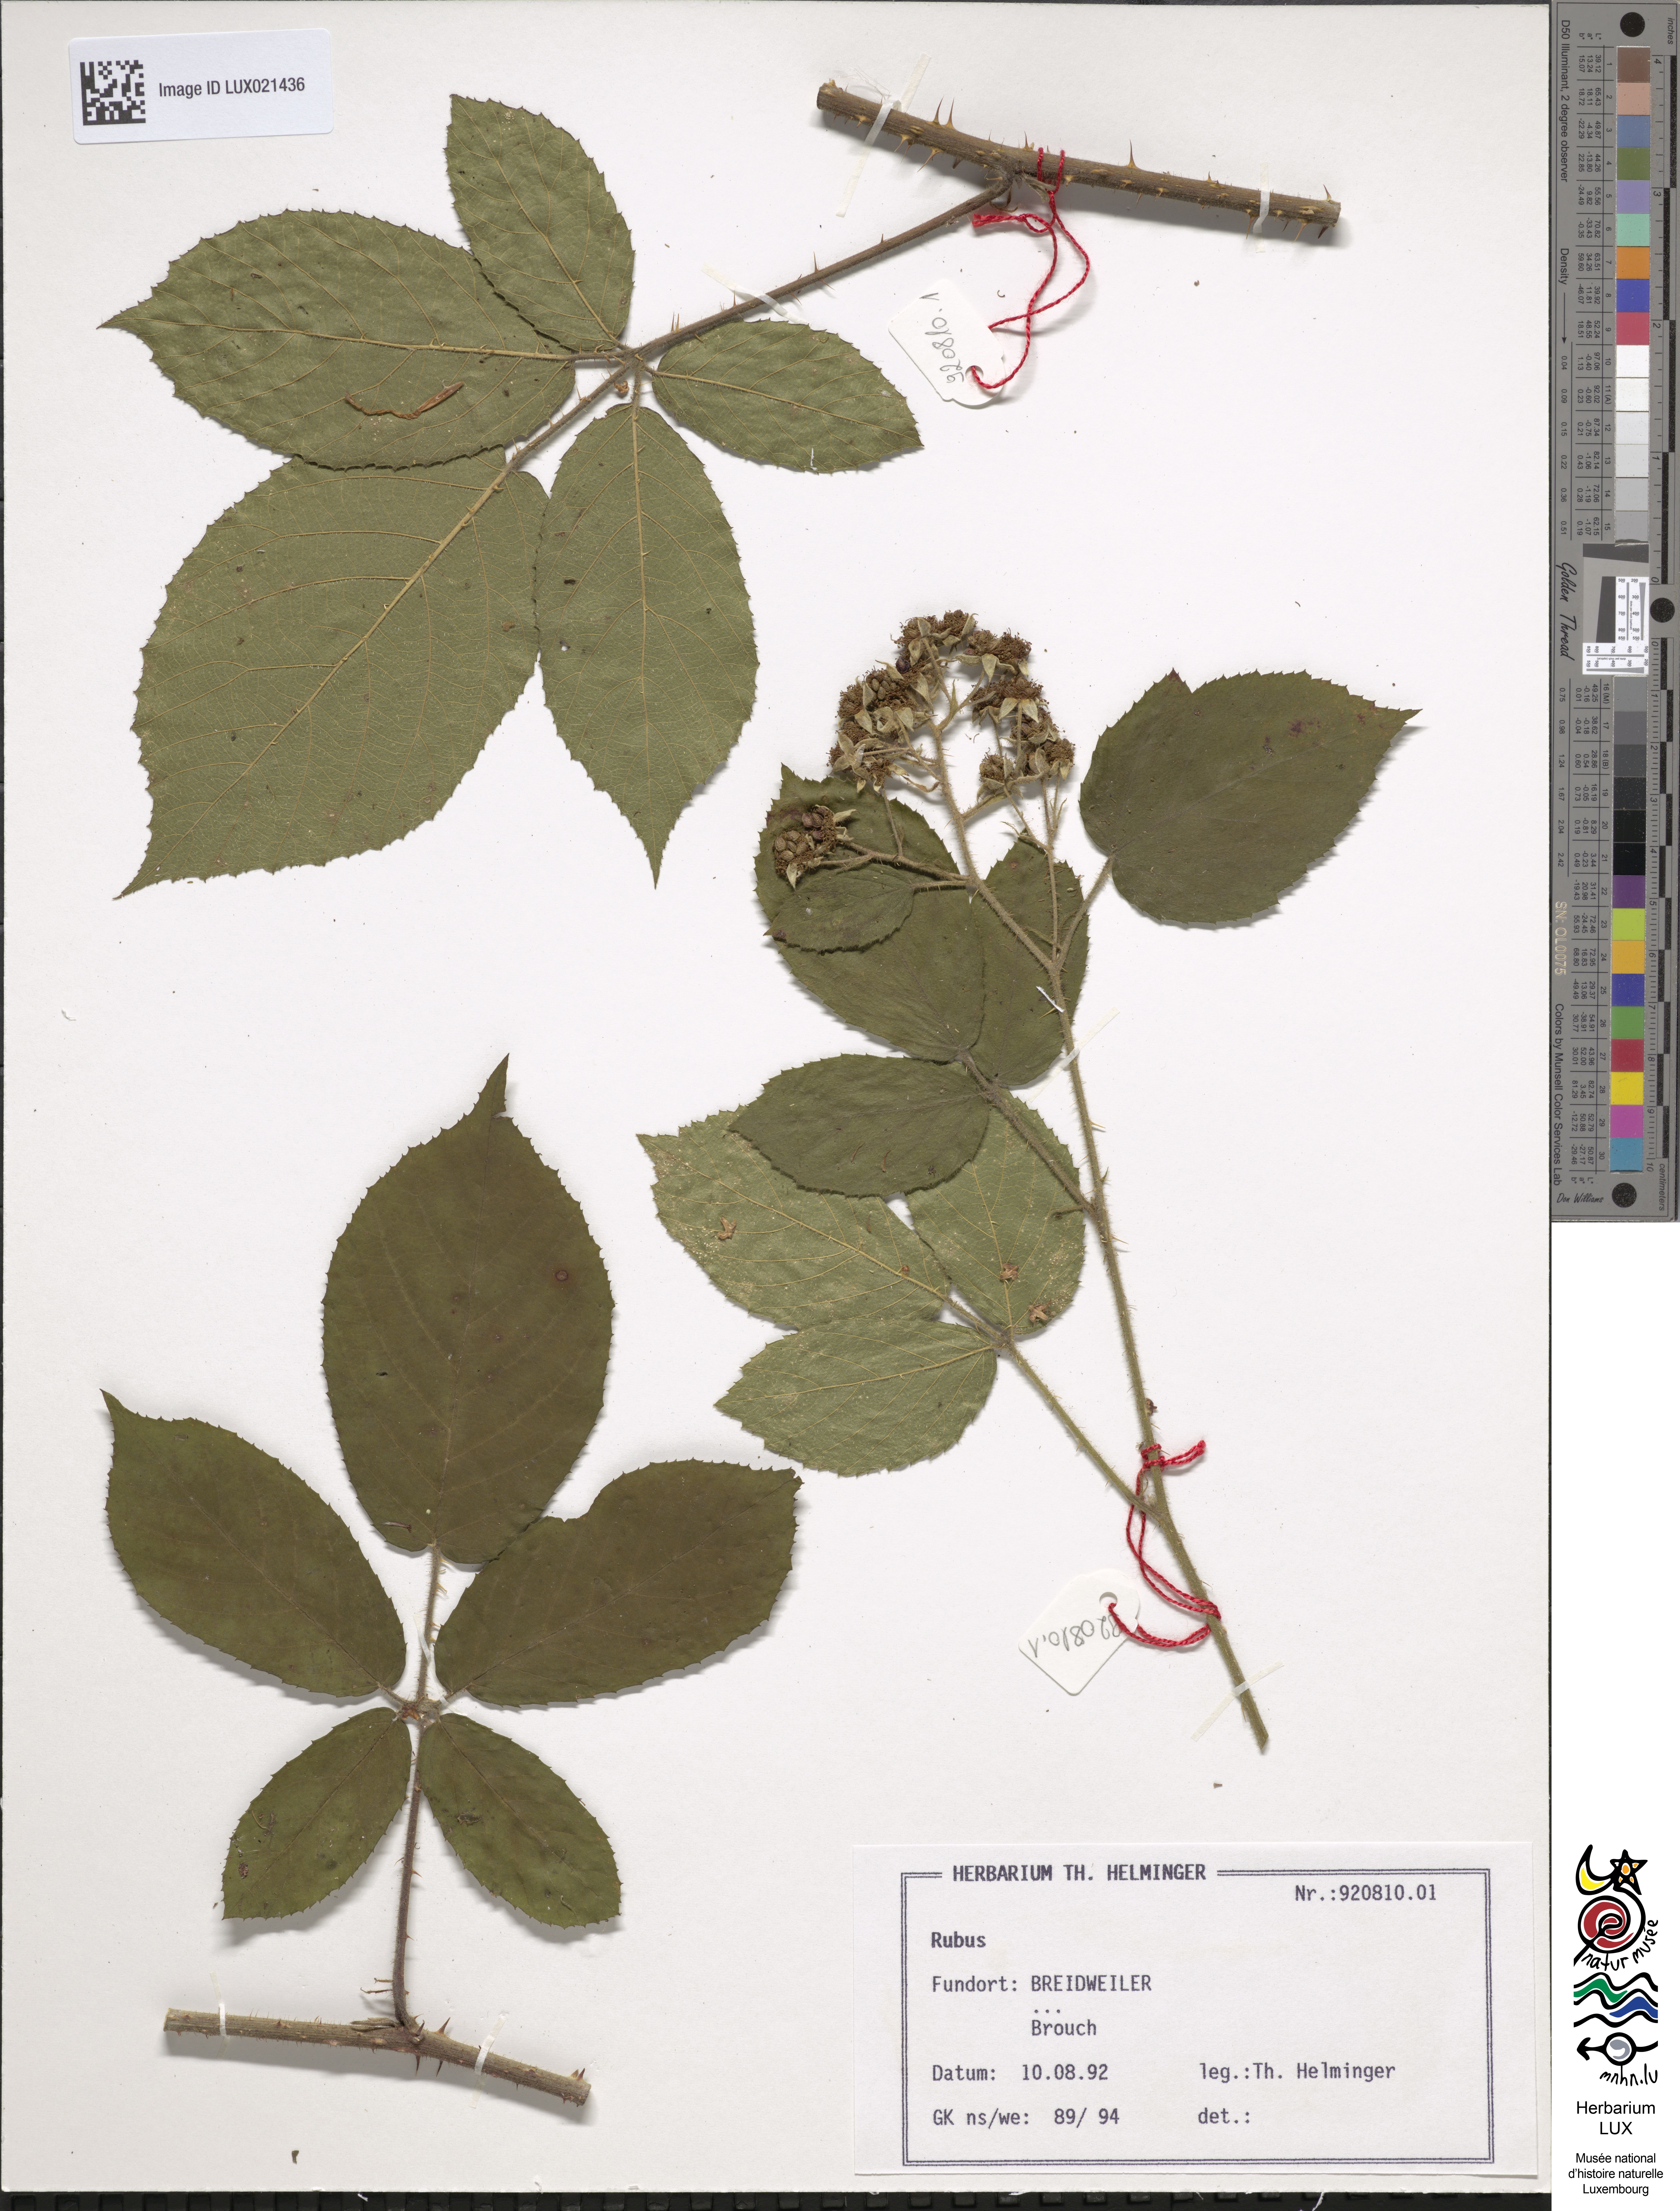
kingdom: Plantae
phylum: Tracheophyta
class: Magnoliopsida
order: Rosales
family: Rosaceae
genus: Rubus
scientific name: Rubus
